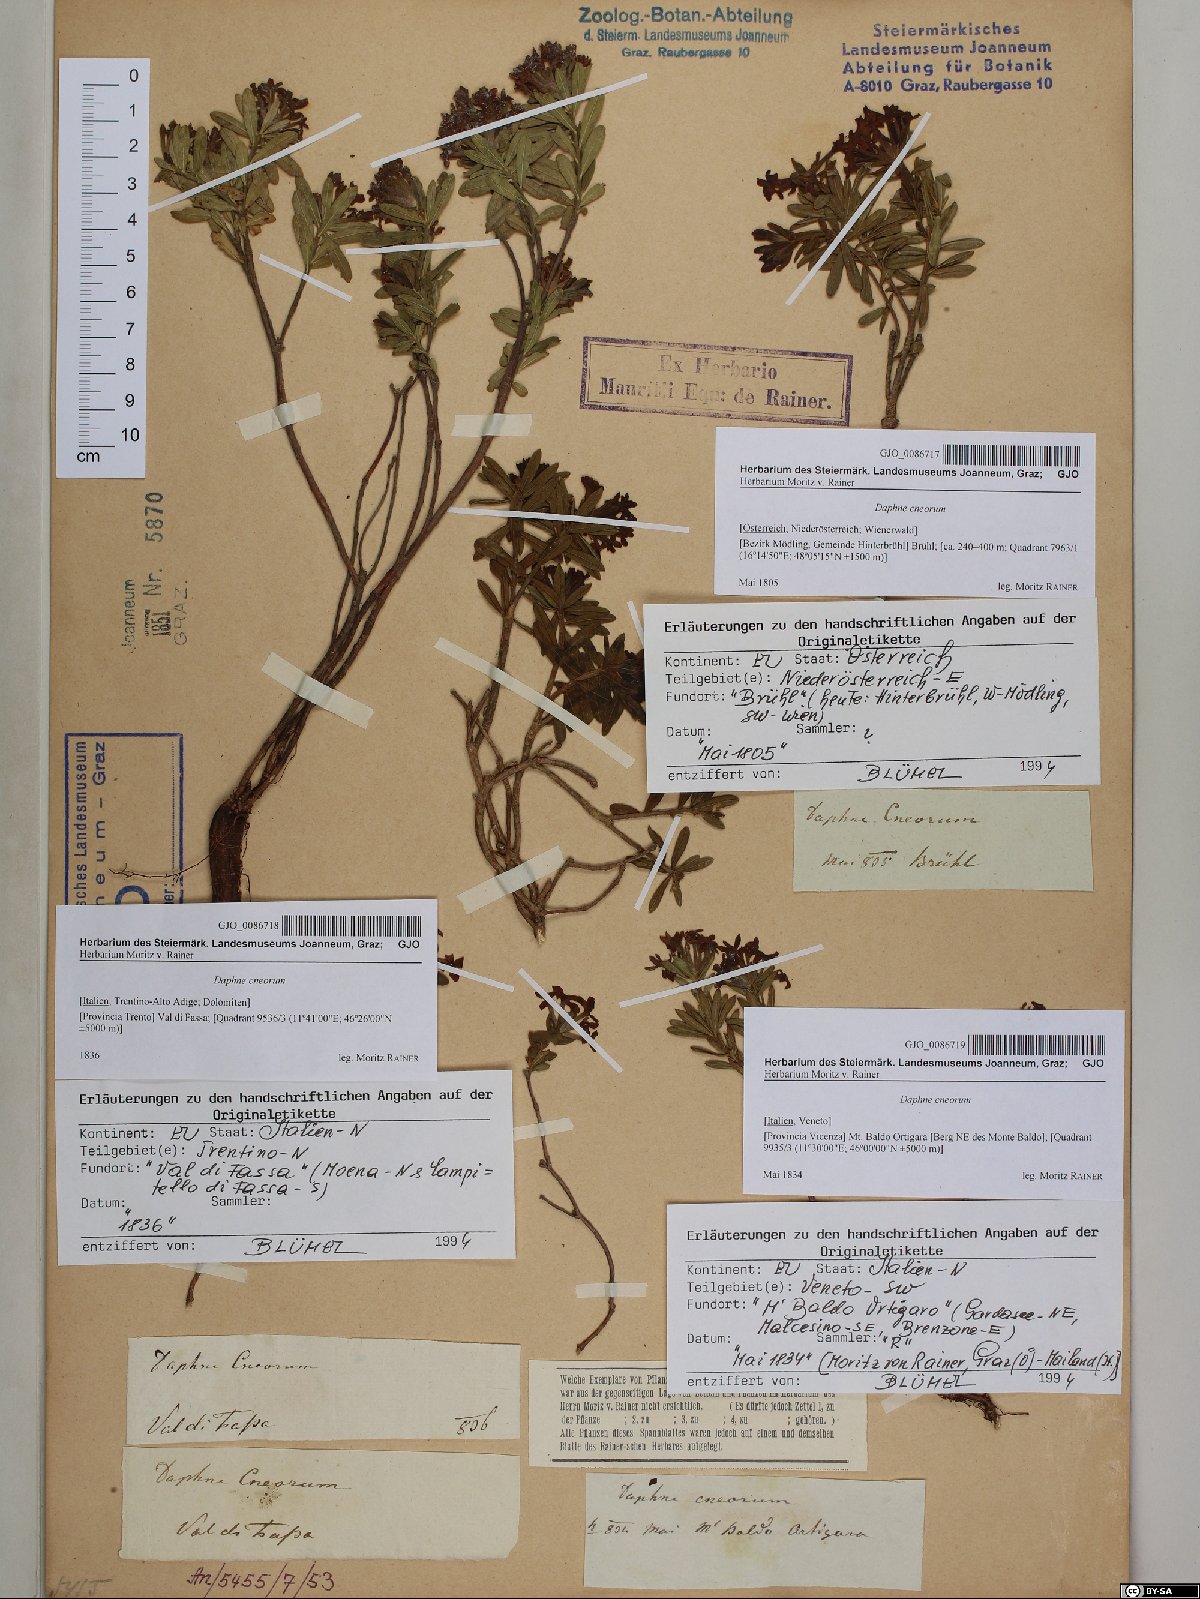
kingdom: Plantae
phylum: Tracheophyta
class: Magnoliopsida
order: Malvales
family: Thymelaeaceae
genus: Daphne
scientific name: Daphne cneorum
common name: Garland-flower
